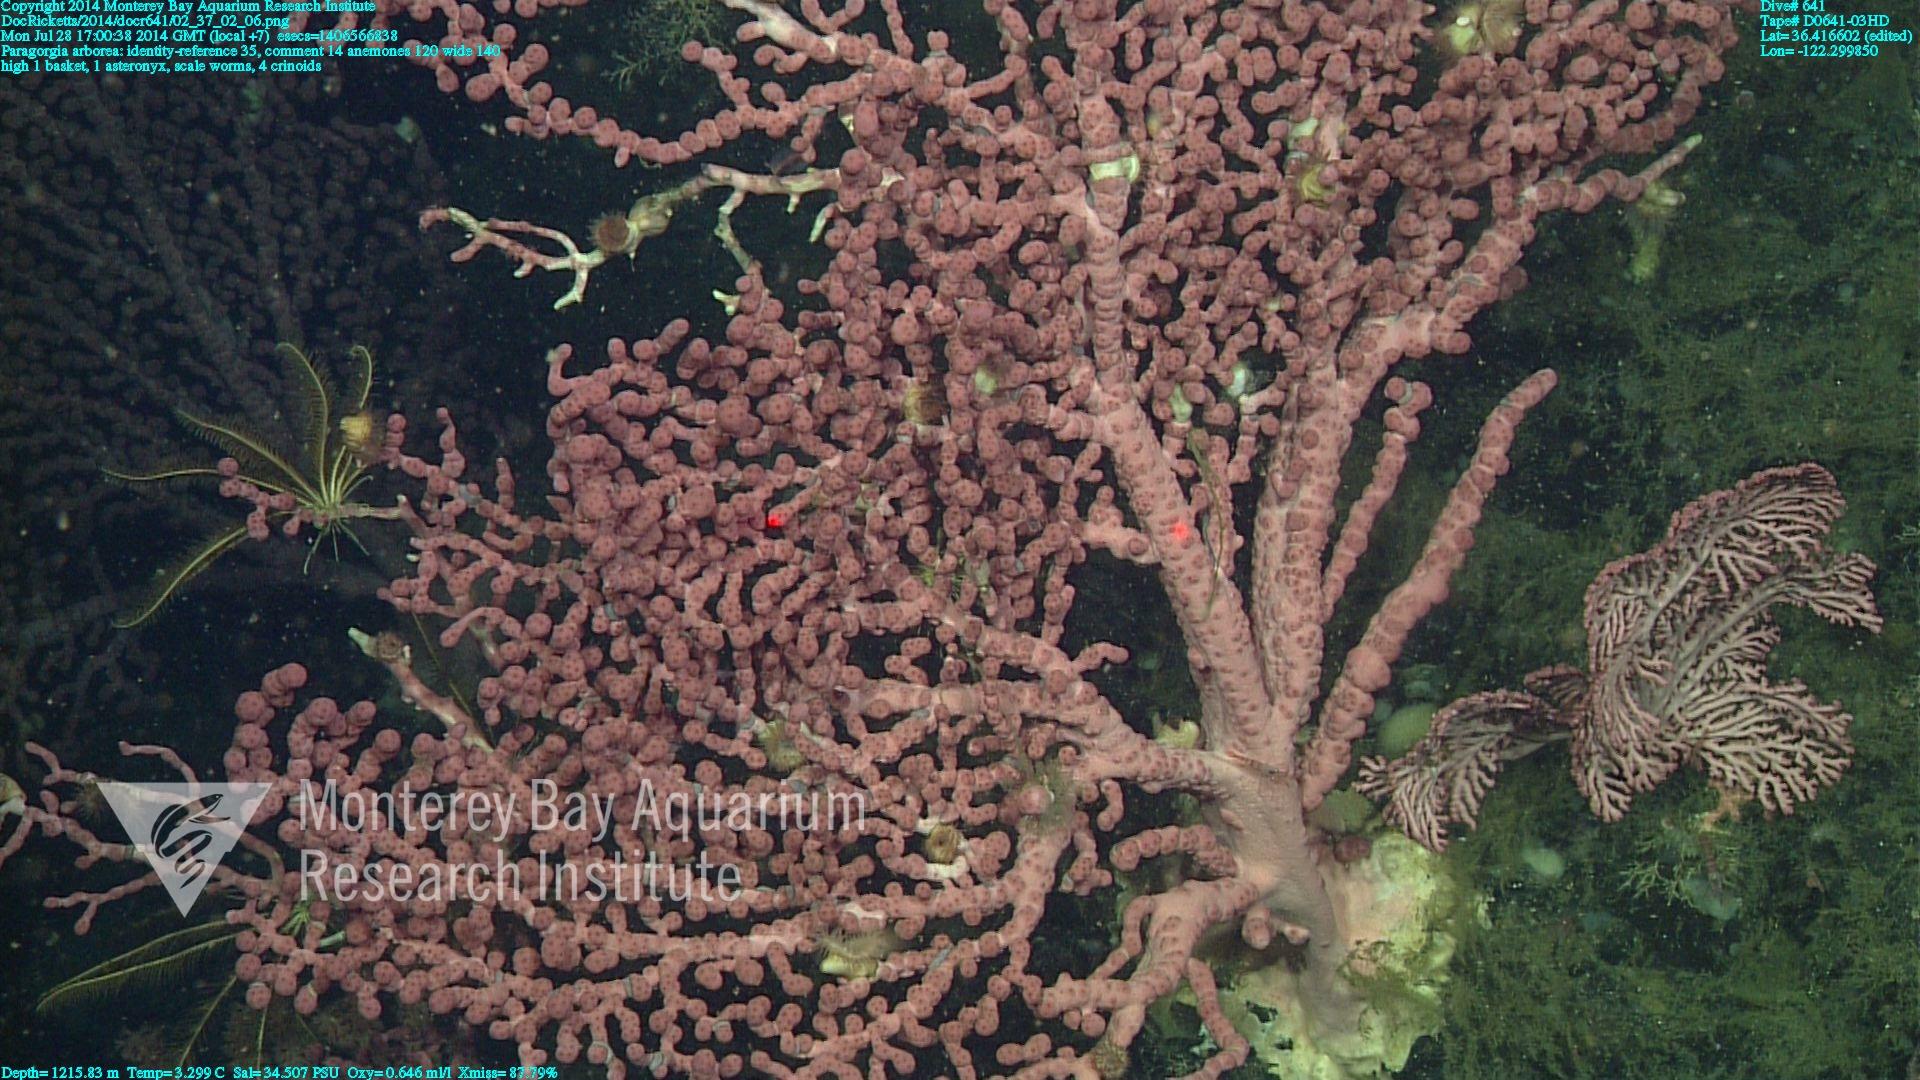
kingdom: Animalia
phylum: Cnidaria
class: Anthozoa
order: Scleralcyonacea
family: Coralliidae
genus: Paragorgia
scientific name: Paragorgia arborea
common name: Bubble gum coral
